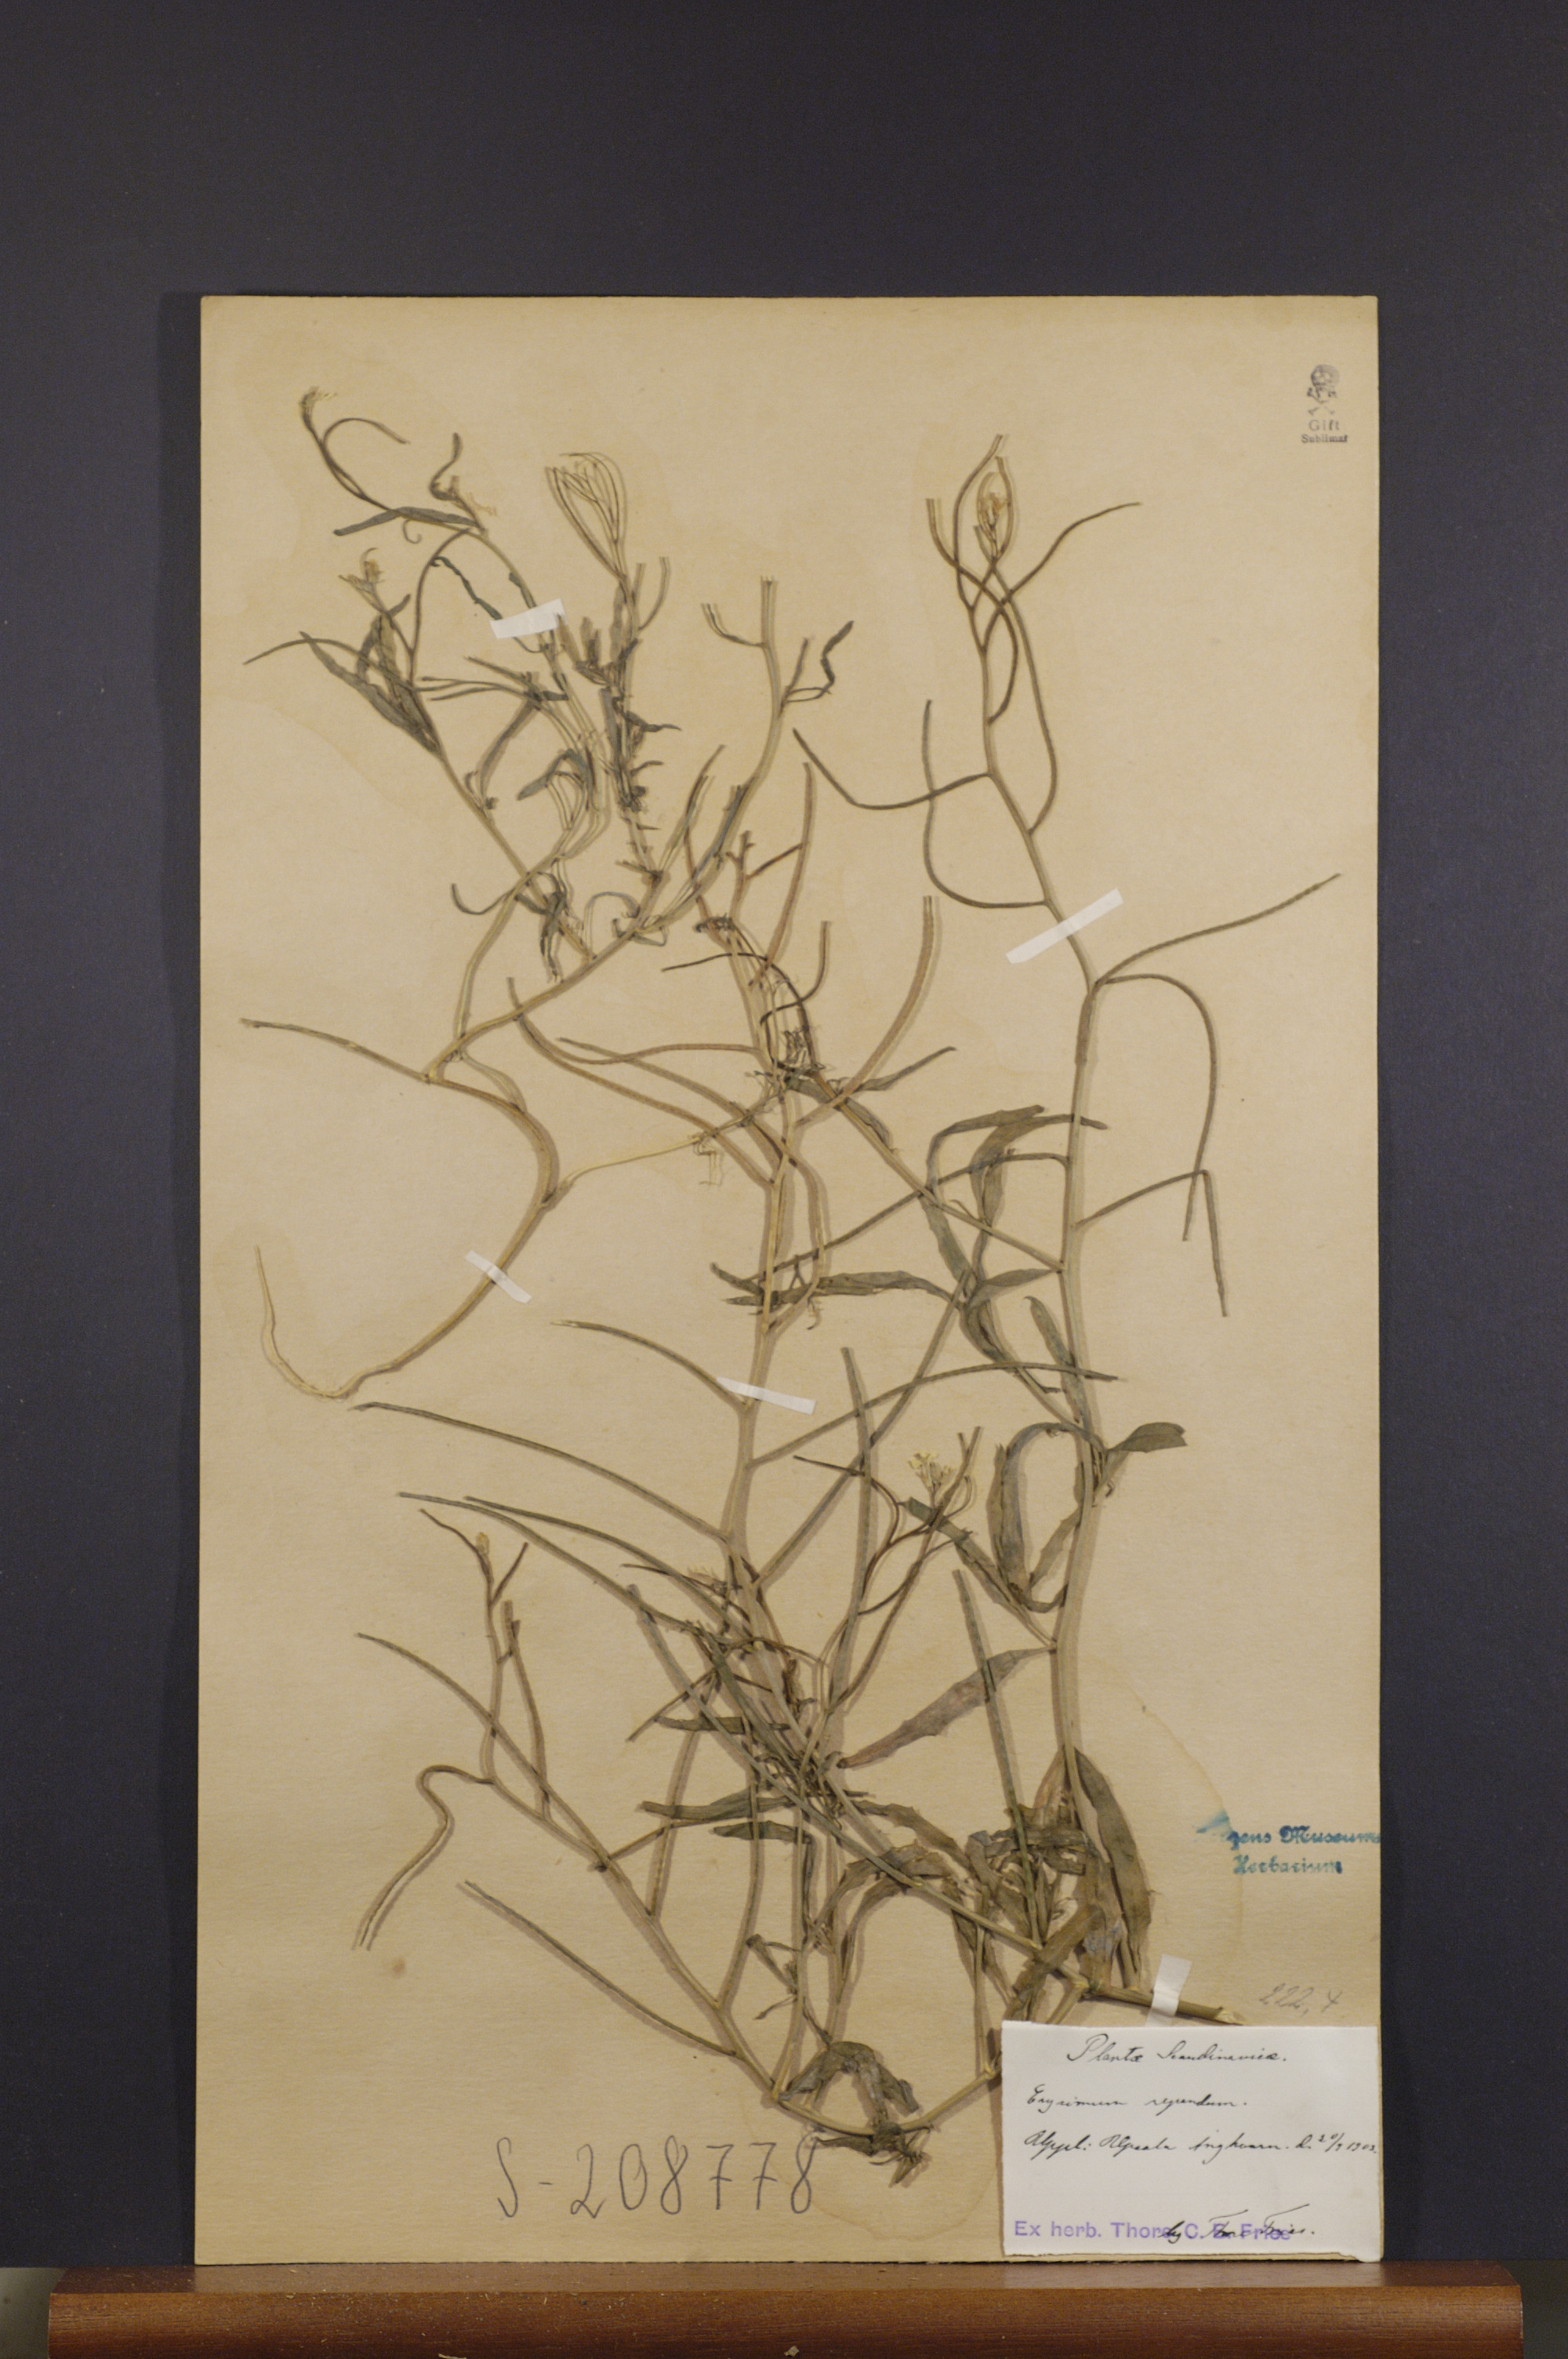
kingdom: Plantae
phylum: Tracheophyta
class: Magnoliopsida
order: Brassicales
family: Brassicaceae
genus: Erysimum
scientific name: Erysimum repandum
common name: Spreading wallflower
